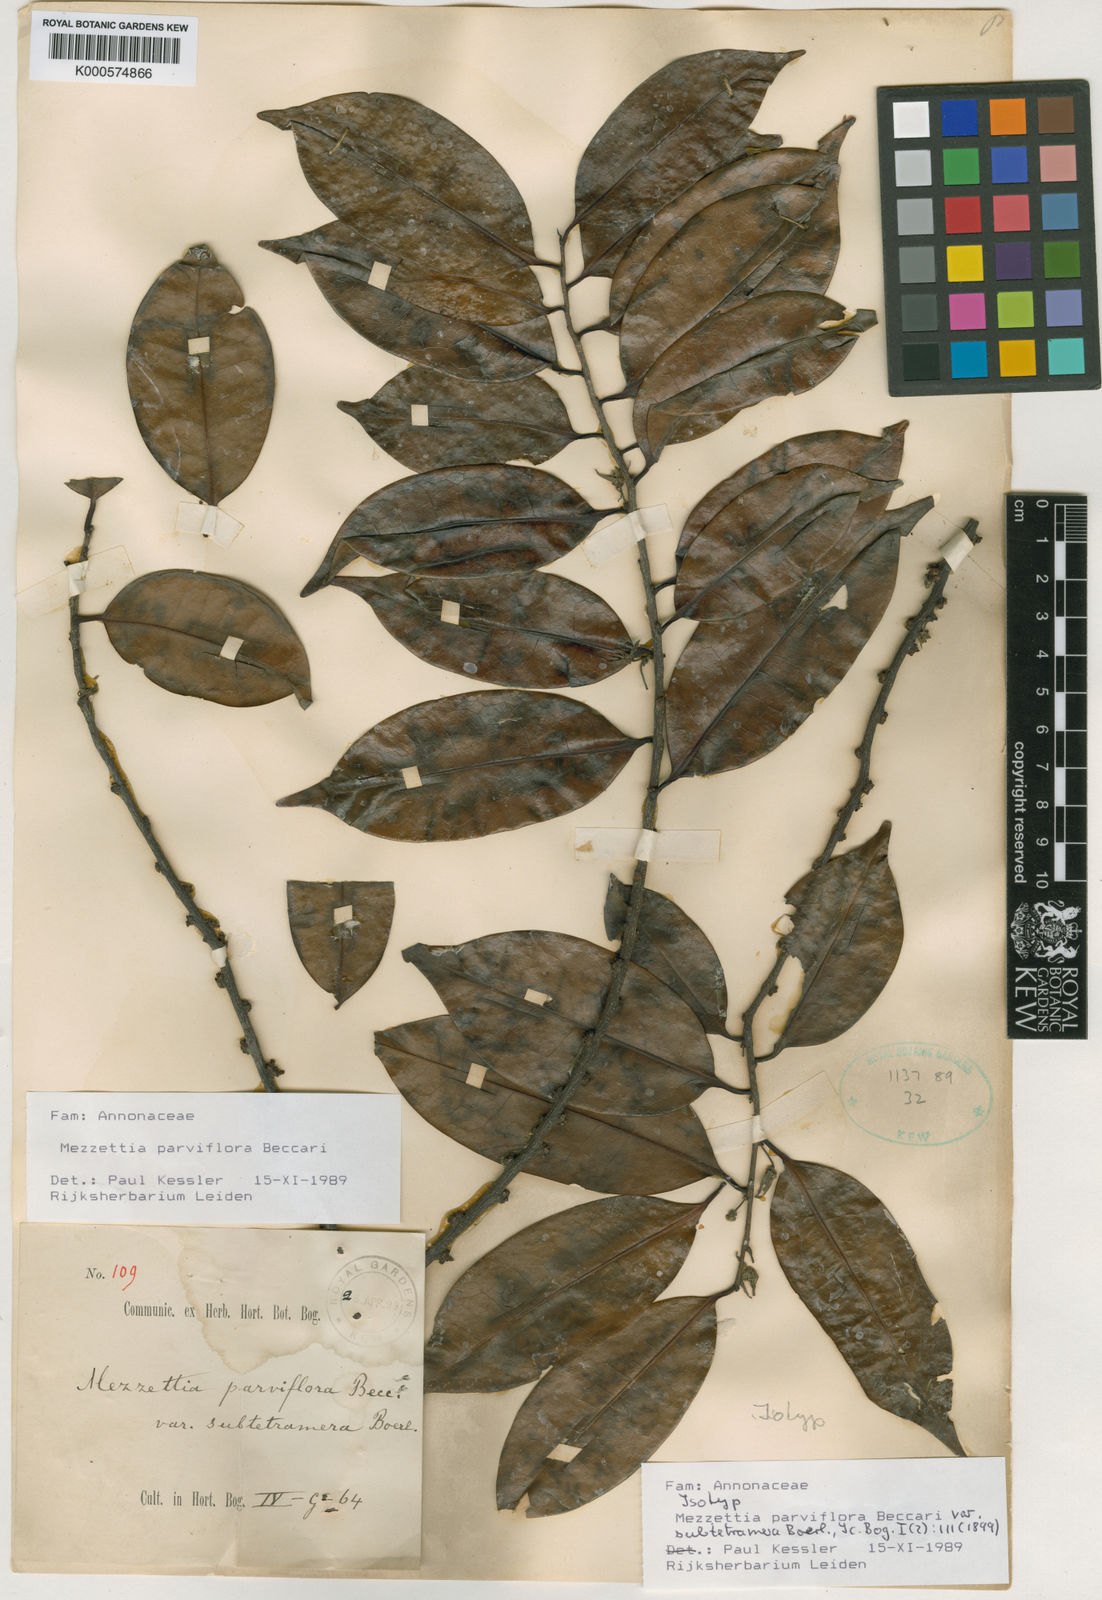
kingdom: Plantae
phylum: Tracheophyta
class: Magnoliopsida
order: Magnoliales
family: Annonaceae
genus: Mezzettia
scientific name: Mezzettia parviflora
